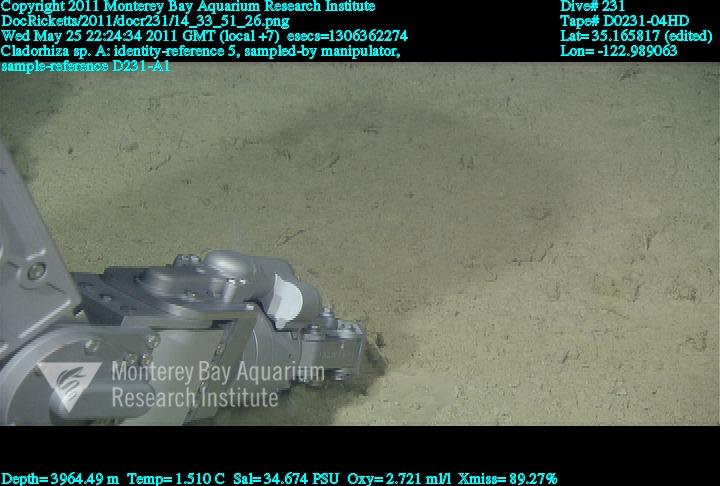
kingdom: Animalia
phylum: Porifera
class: Demospongiae
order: Poecilosclerida
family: Cladorhizidae
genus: Cladorhiza
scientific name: Cladorhiza
